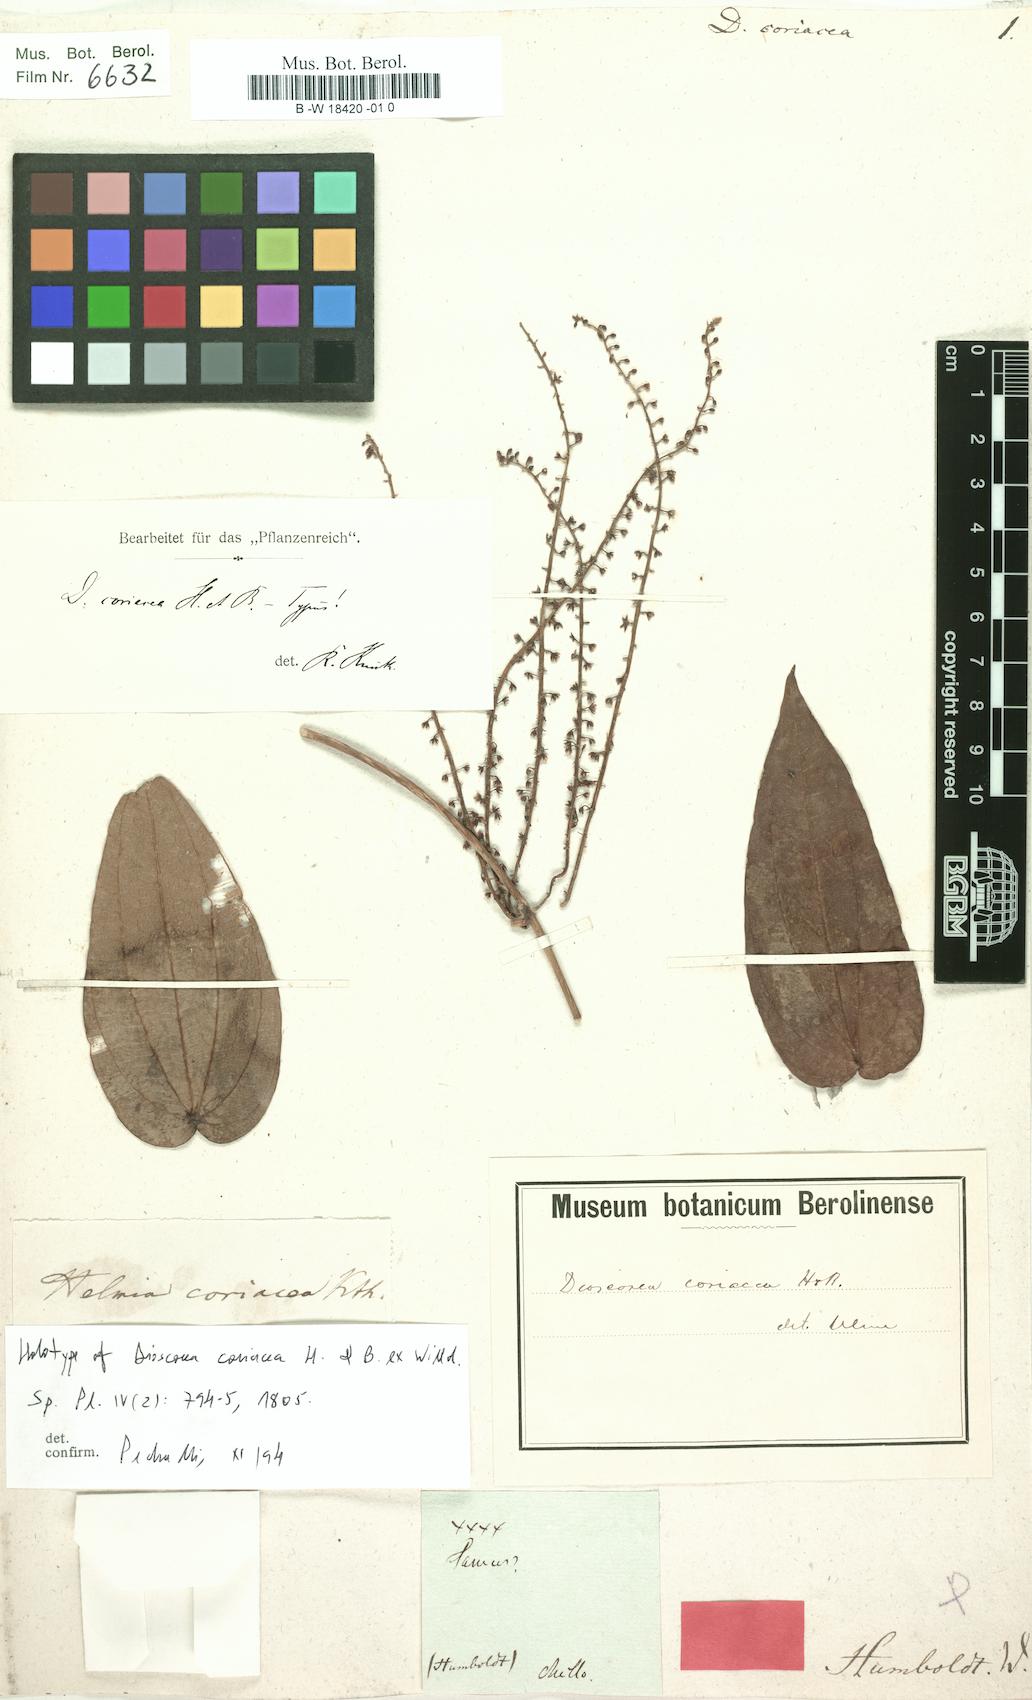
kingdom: Plantae
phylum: Tracheophyta
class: Liliopsida
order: Dioscoreales
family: Dioscoreaceae
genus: Dioscorea
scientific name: Dioscorea coriacea
